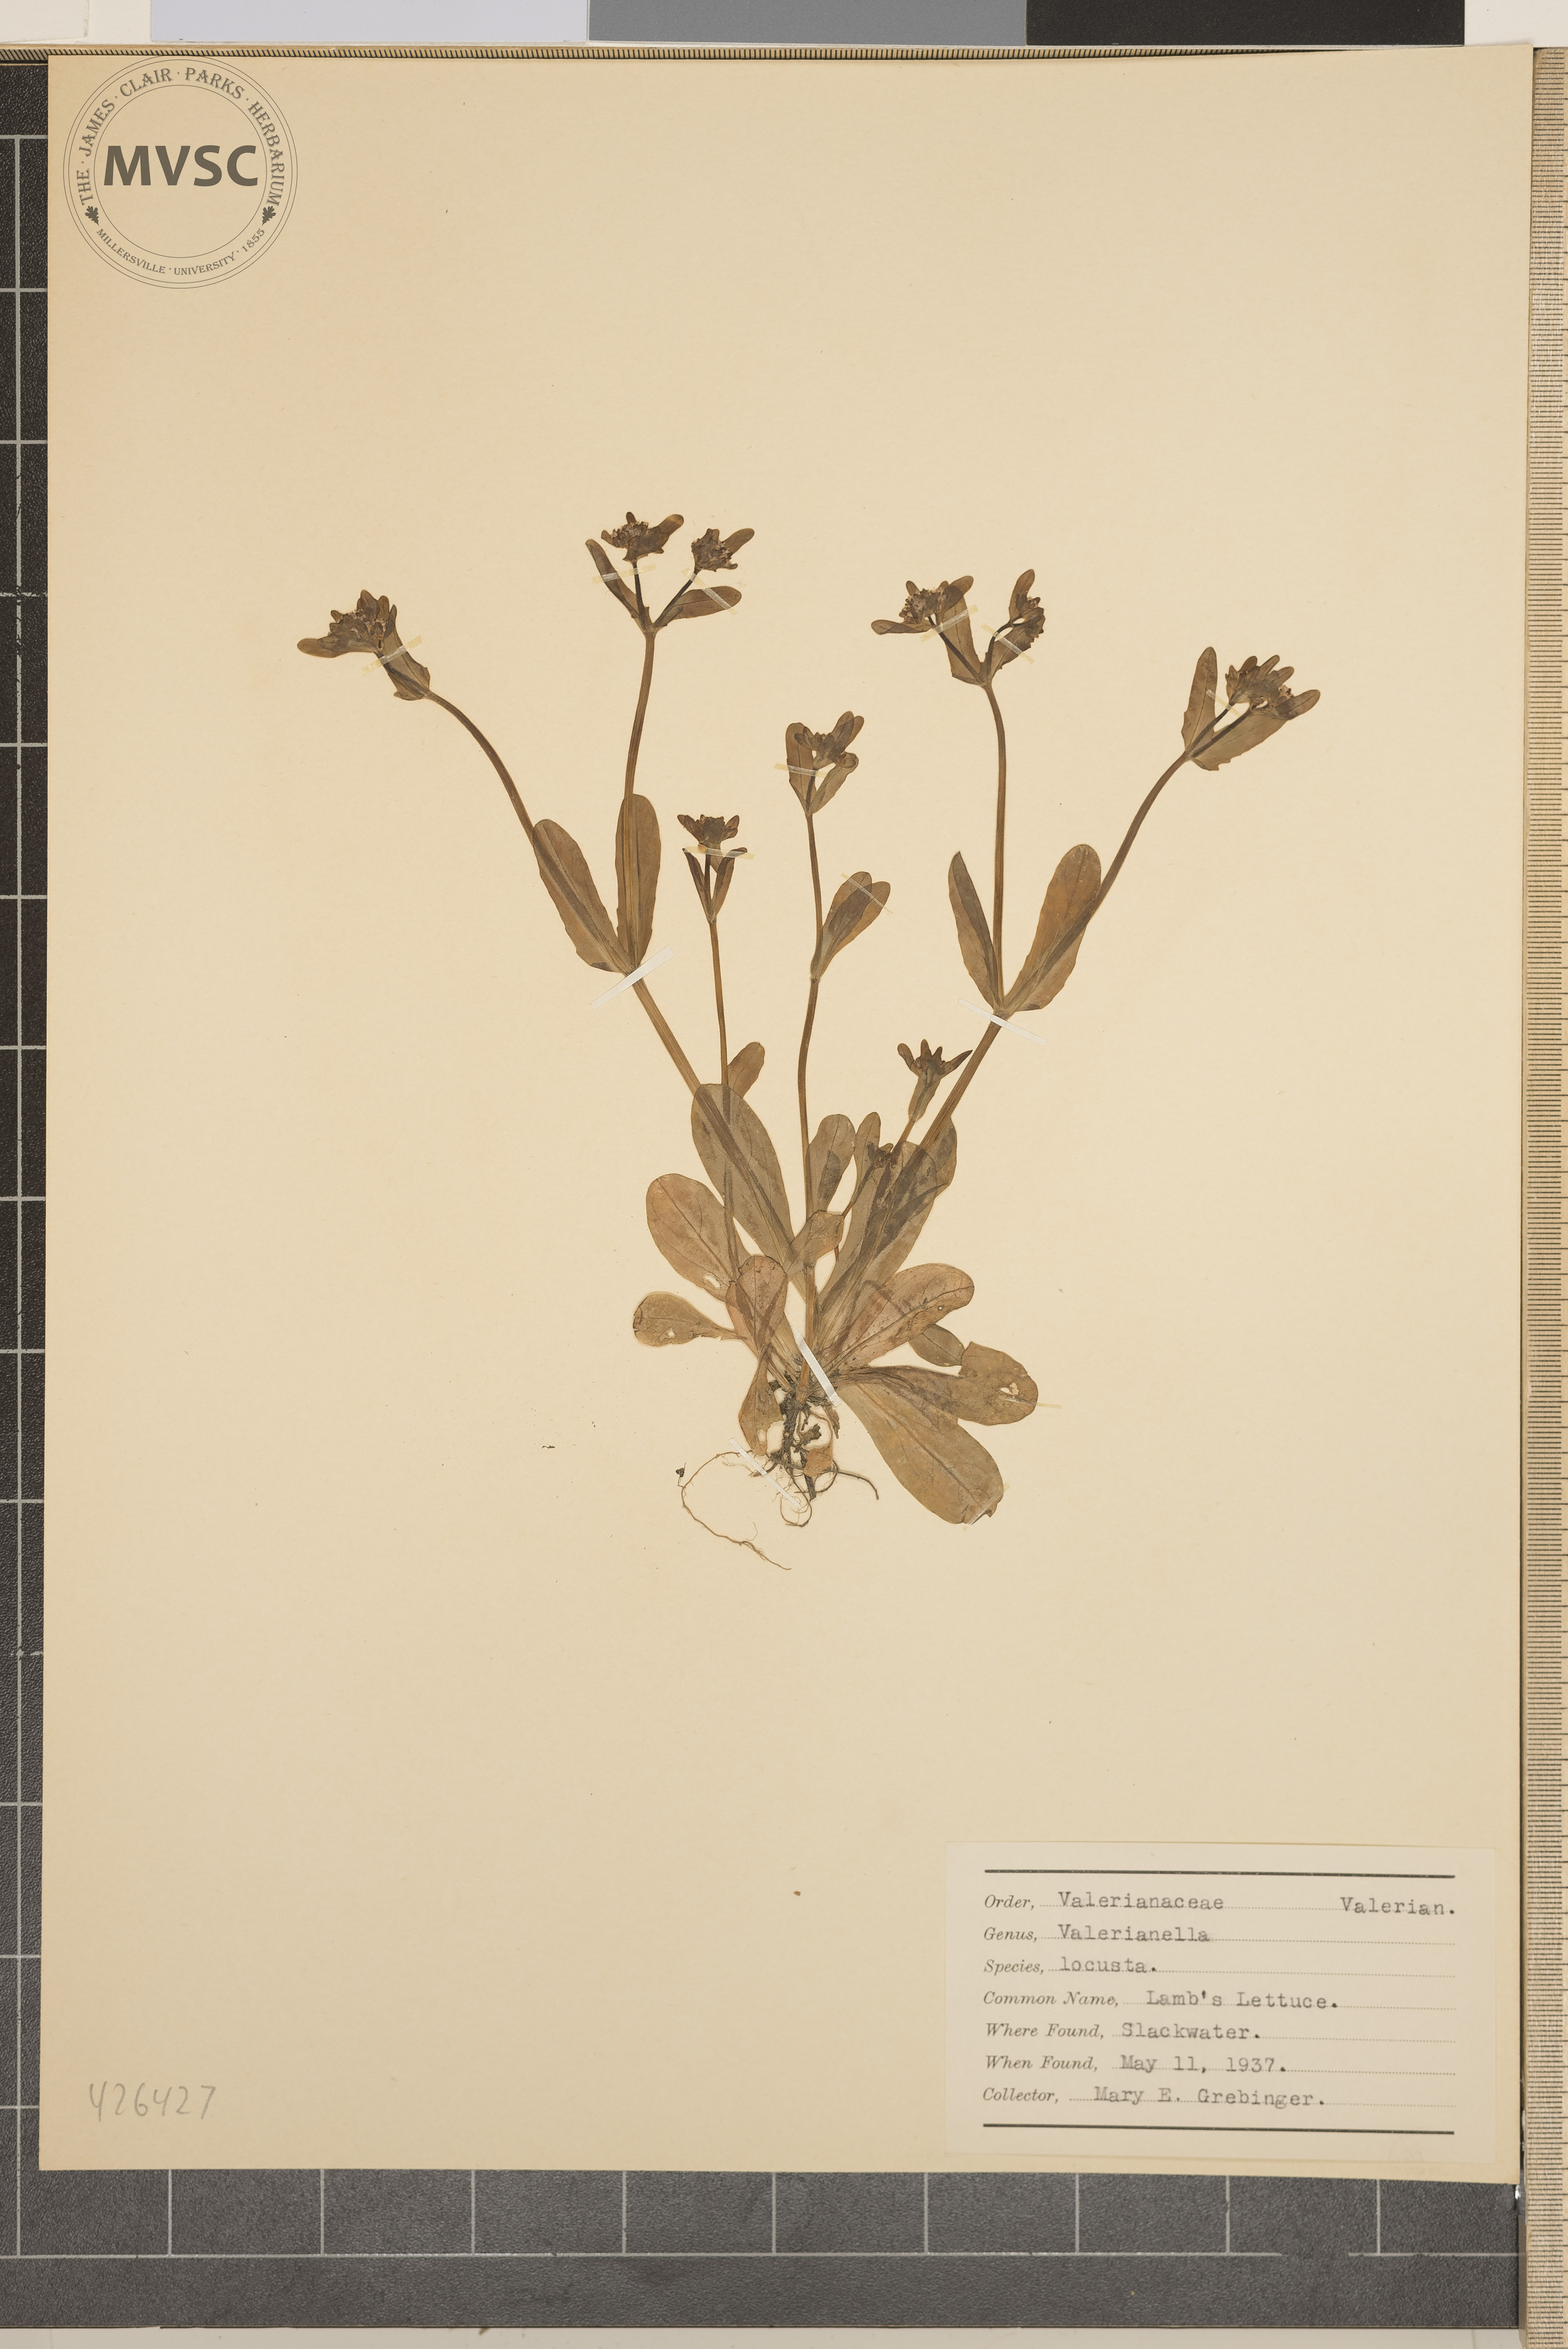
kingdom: Plantae
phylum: Tracheophyta
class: Magnoliopsida
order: Dipsacales
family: Caprifoliaceae
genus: Valerianella
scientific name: Valerianella locusta
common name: Lamb's lettuce
